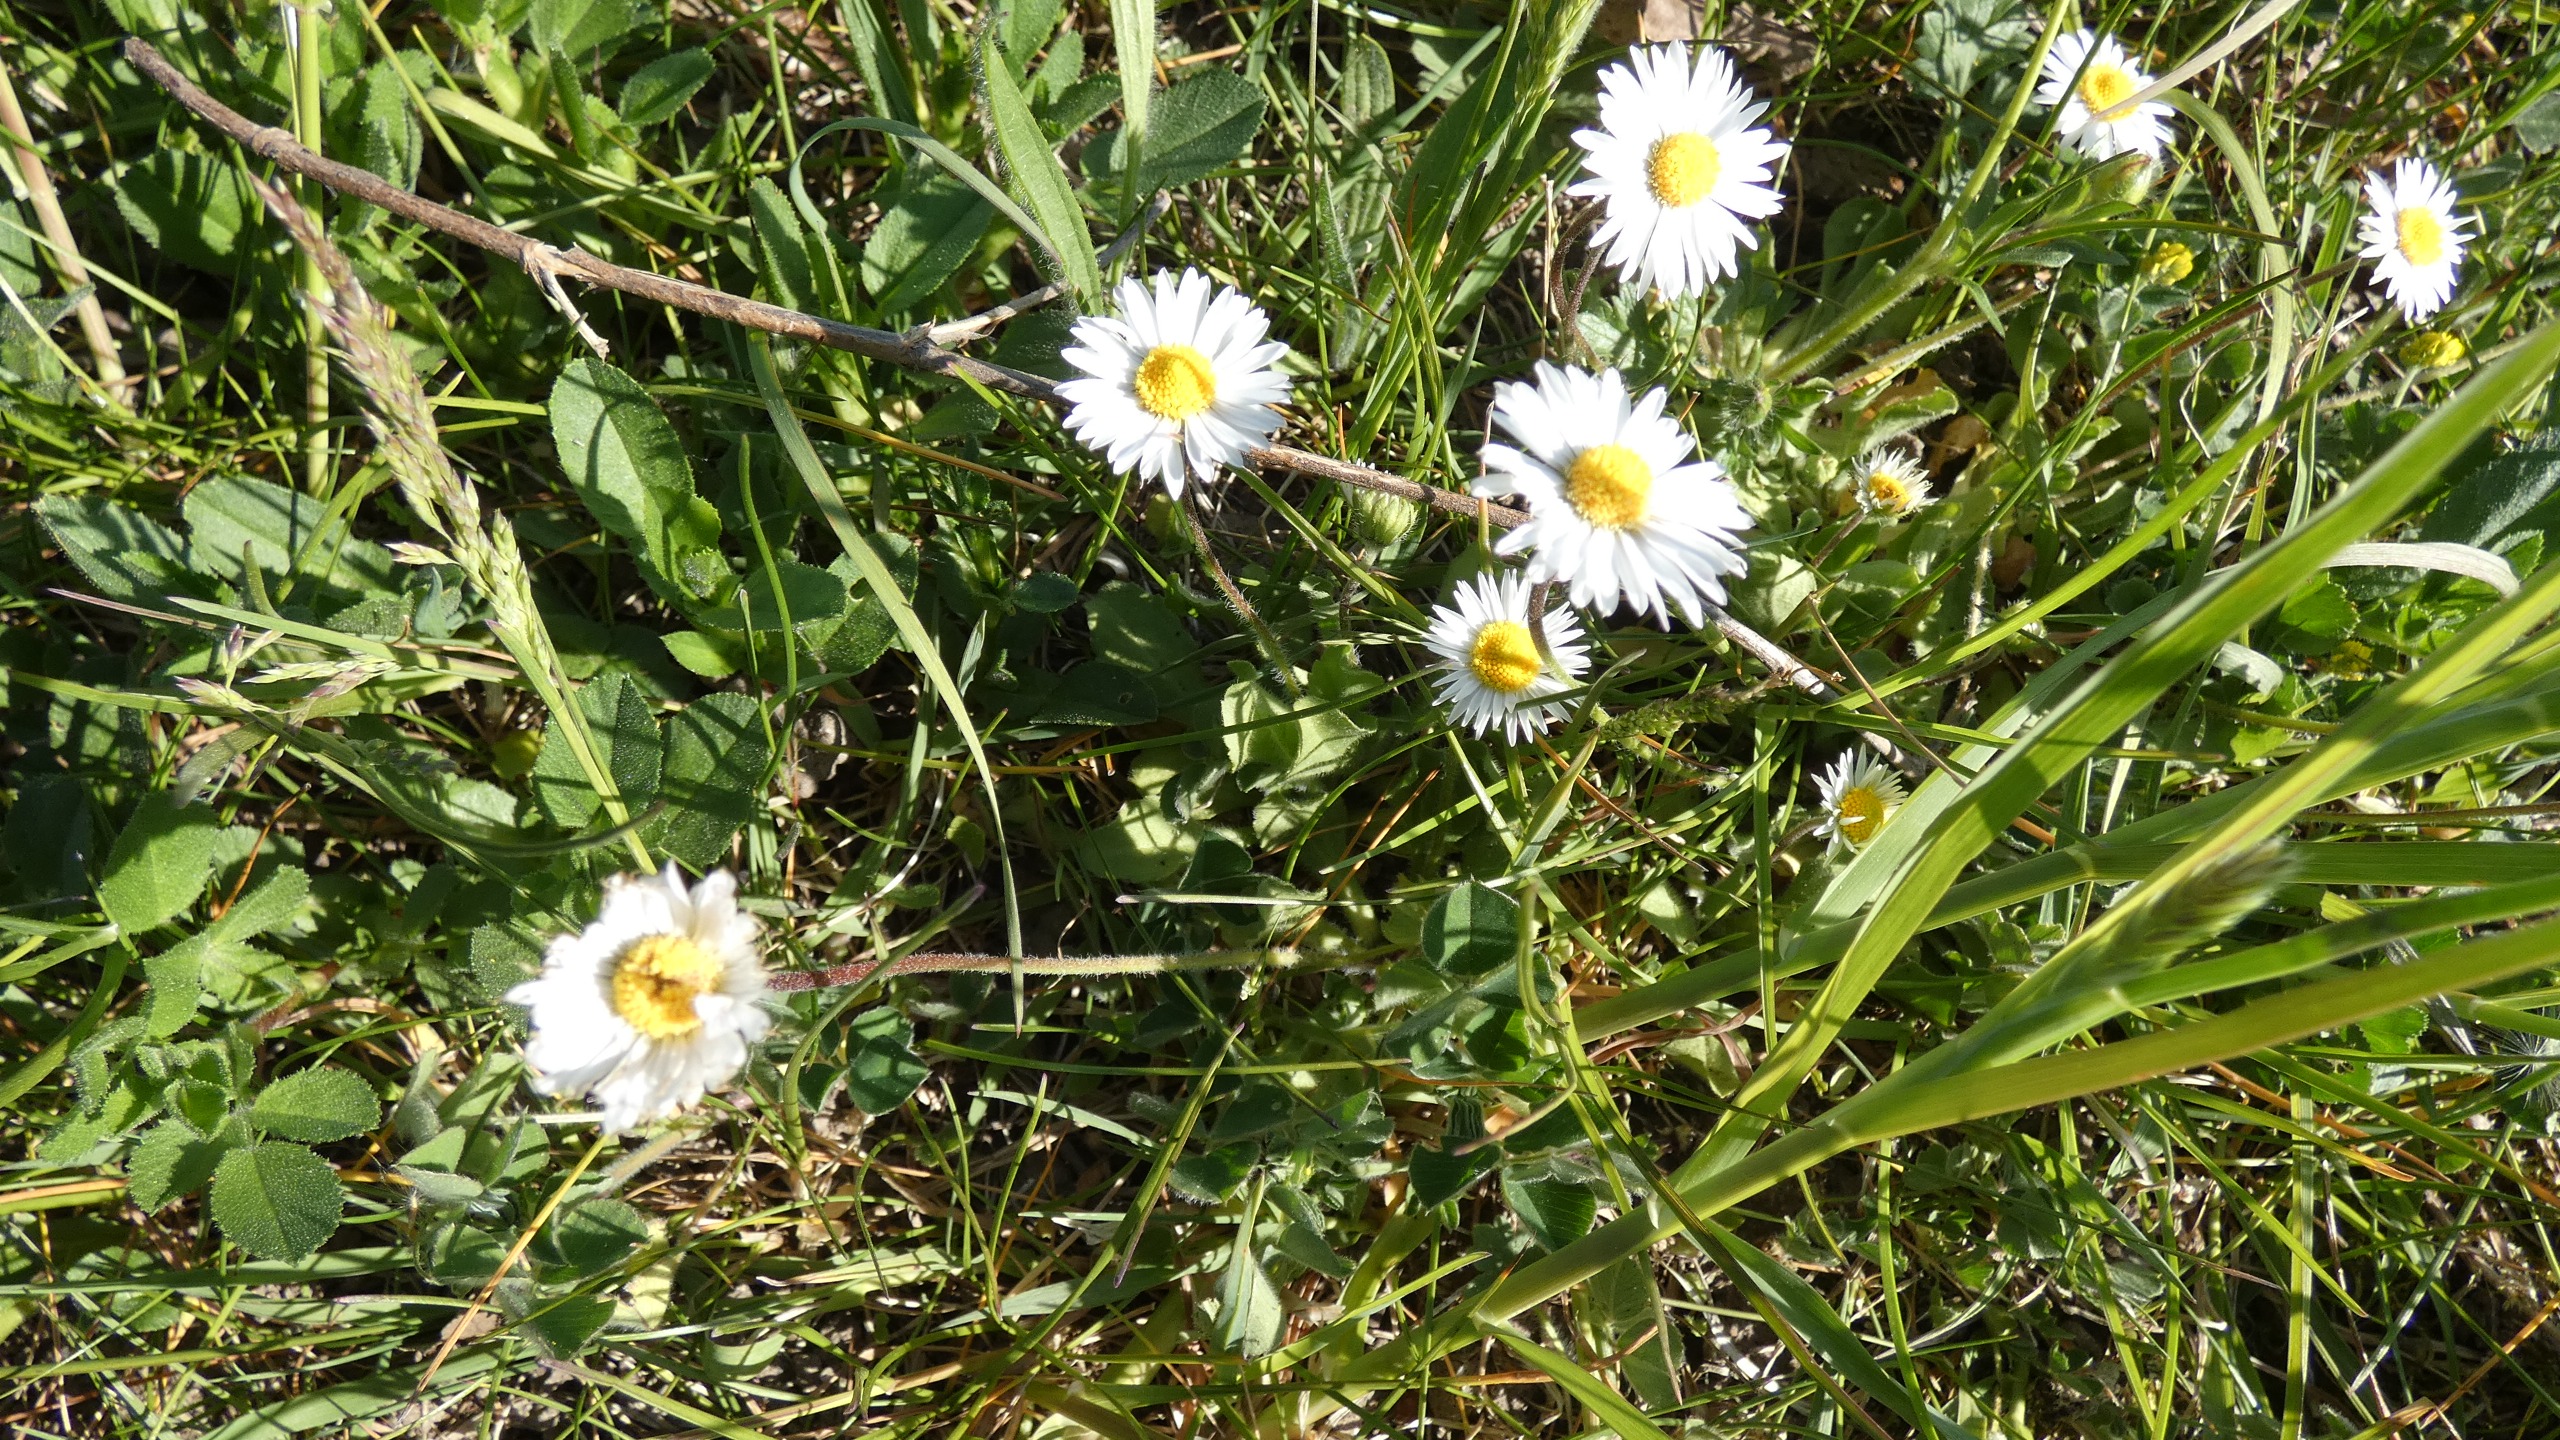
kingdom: Plantae
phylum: Tracheophyta
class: Magnoliopsida
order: Asterales
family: Asteraceae
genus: Bellis
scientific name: Bellis perennis
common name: Tusindfryd
